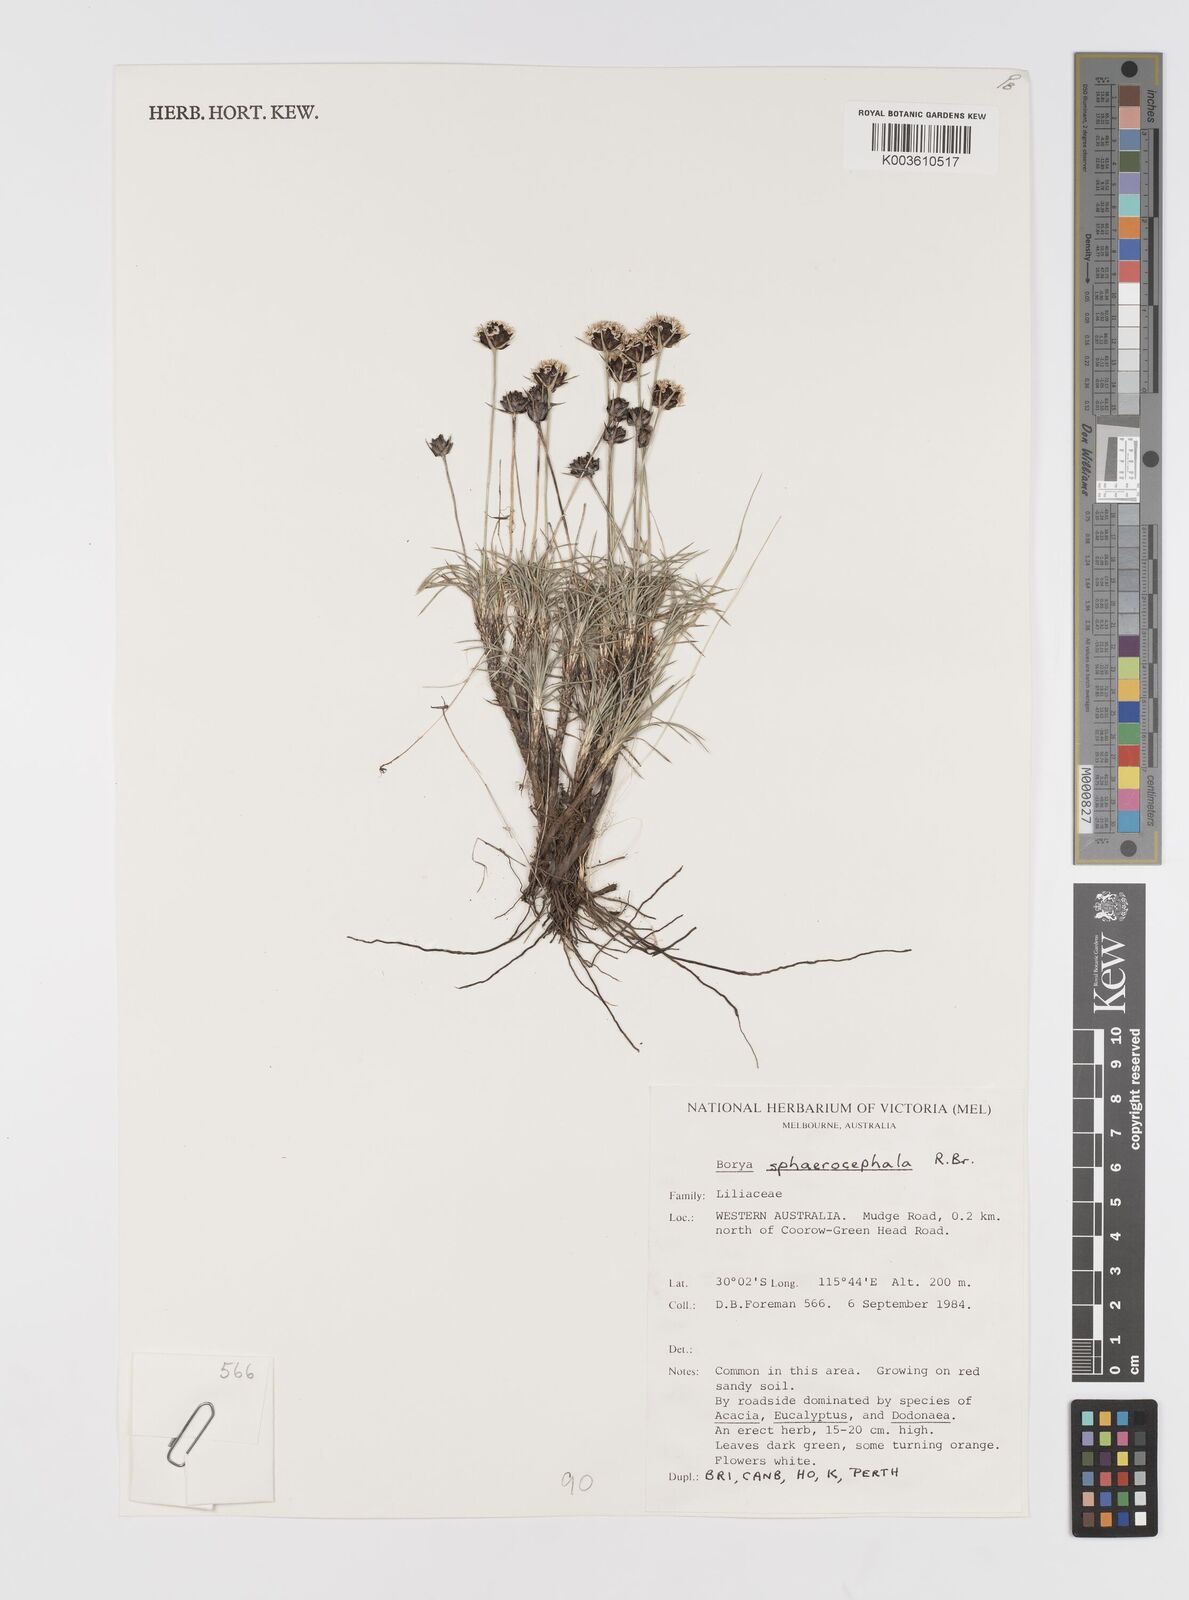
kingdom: Plantae
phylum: Tracheophyta
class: Liliopsida
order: Asparagales
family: Boryaceae
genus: Borya
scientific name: Borya nitida
